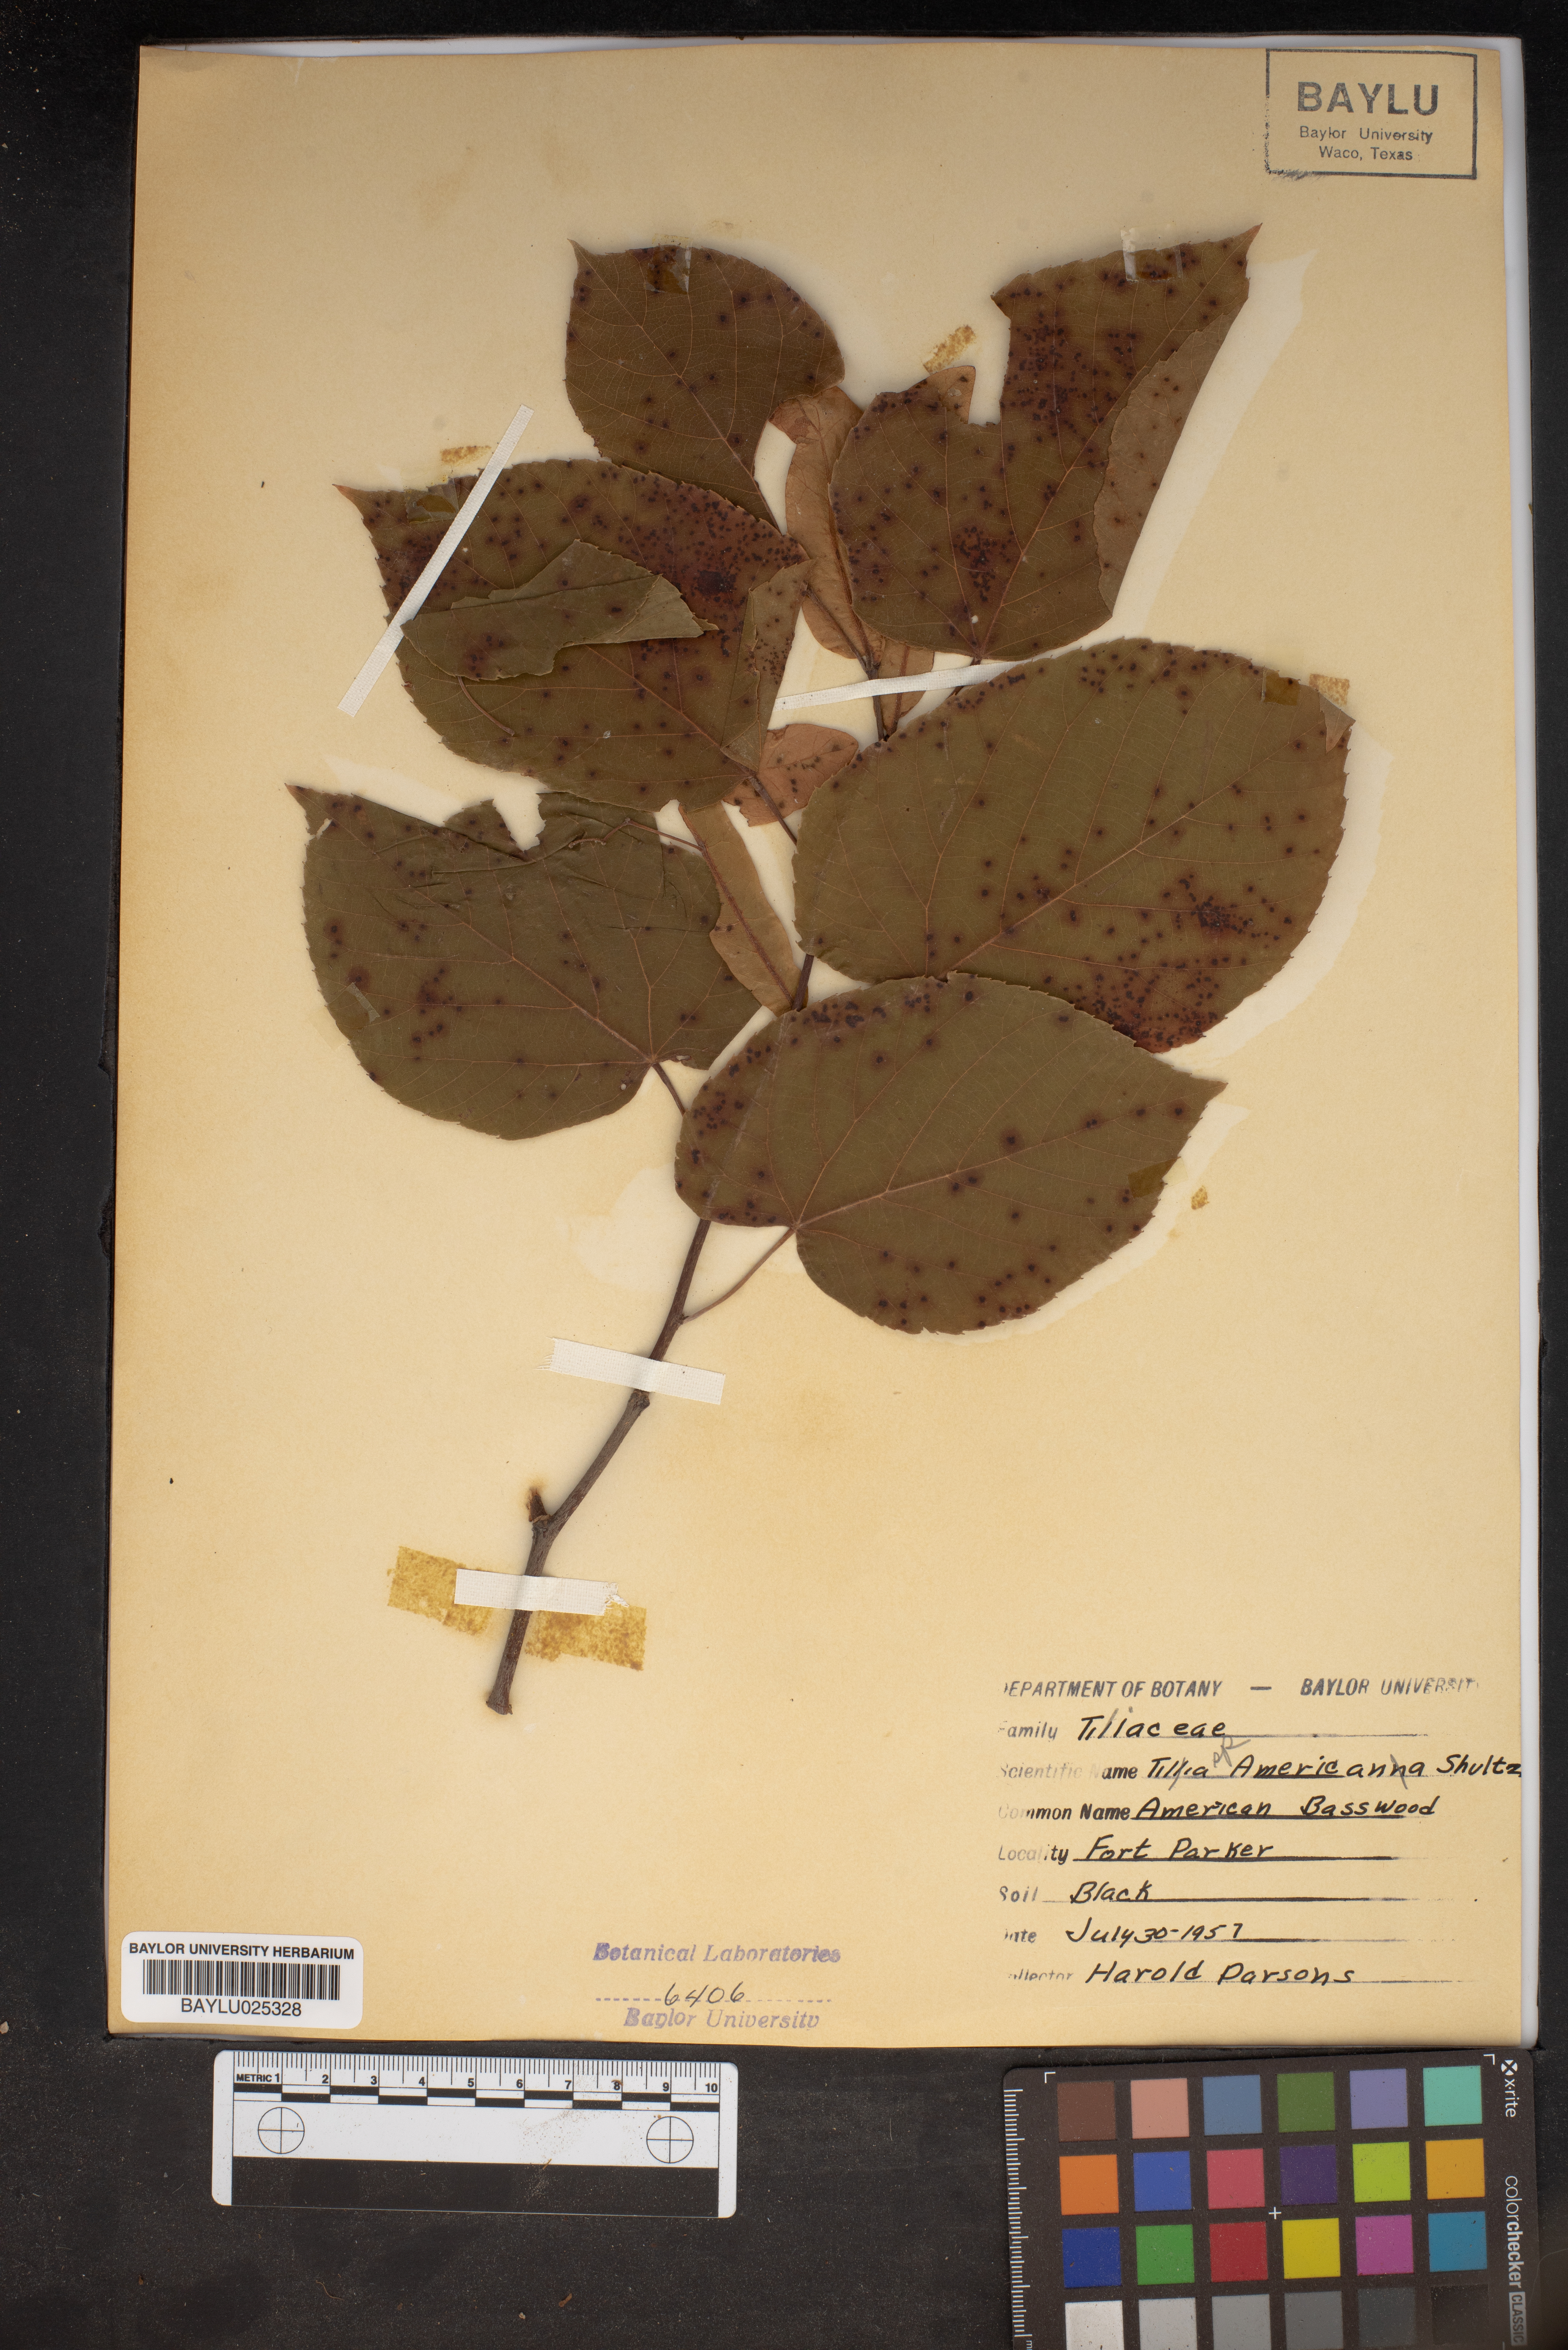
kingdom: Plantae
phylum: Tracheophyta
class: Magnoliopsida
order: Malvales
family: Malvaceae
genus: Tilia
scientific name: Tilia americana
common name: Basswood
